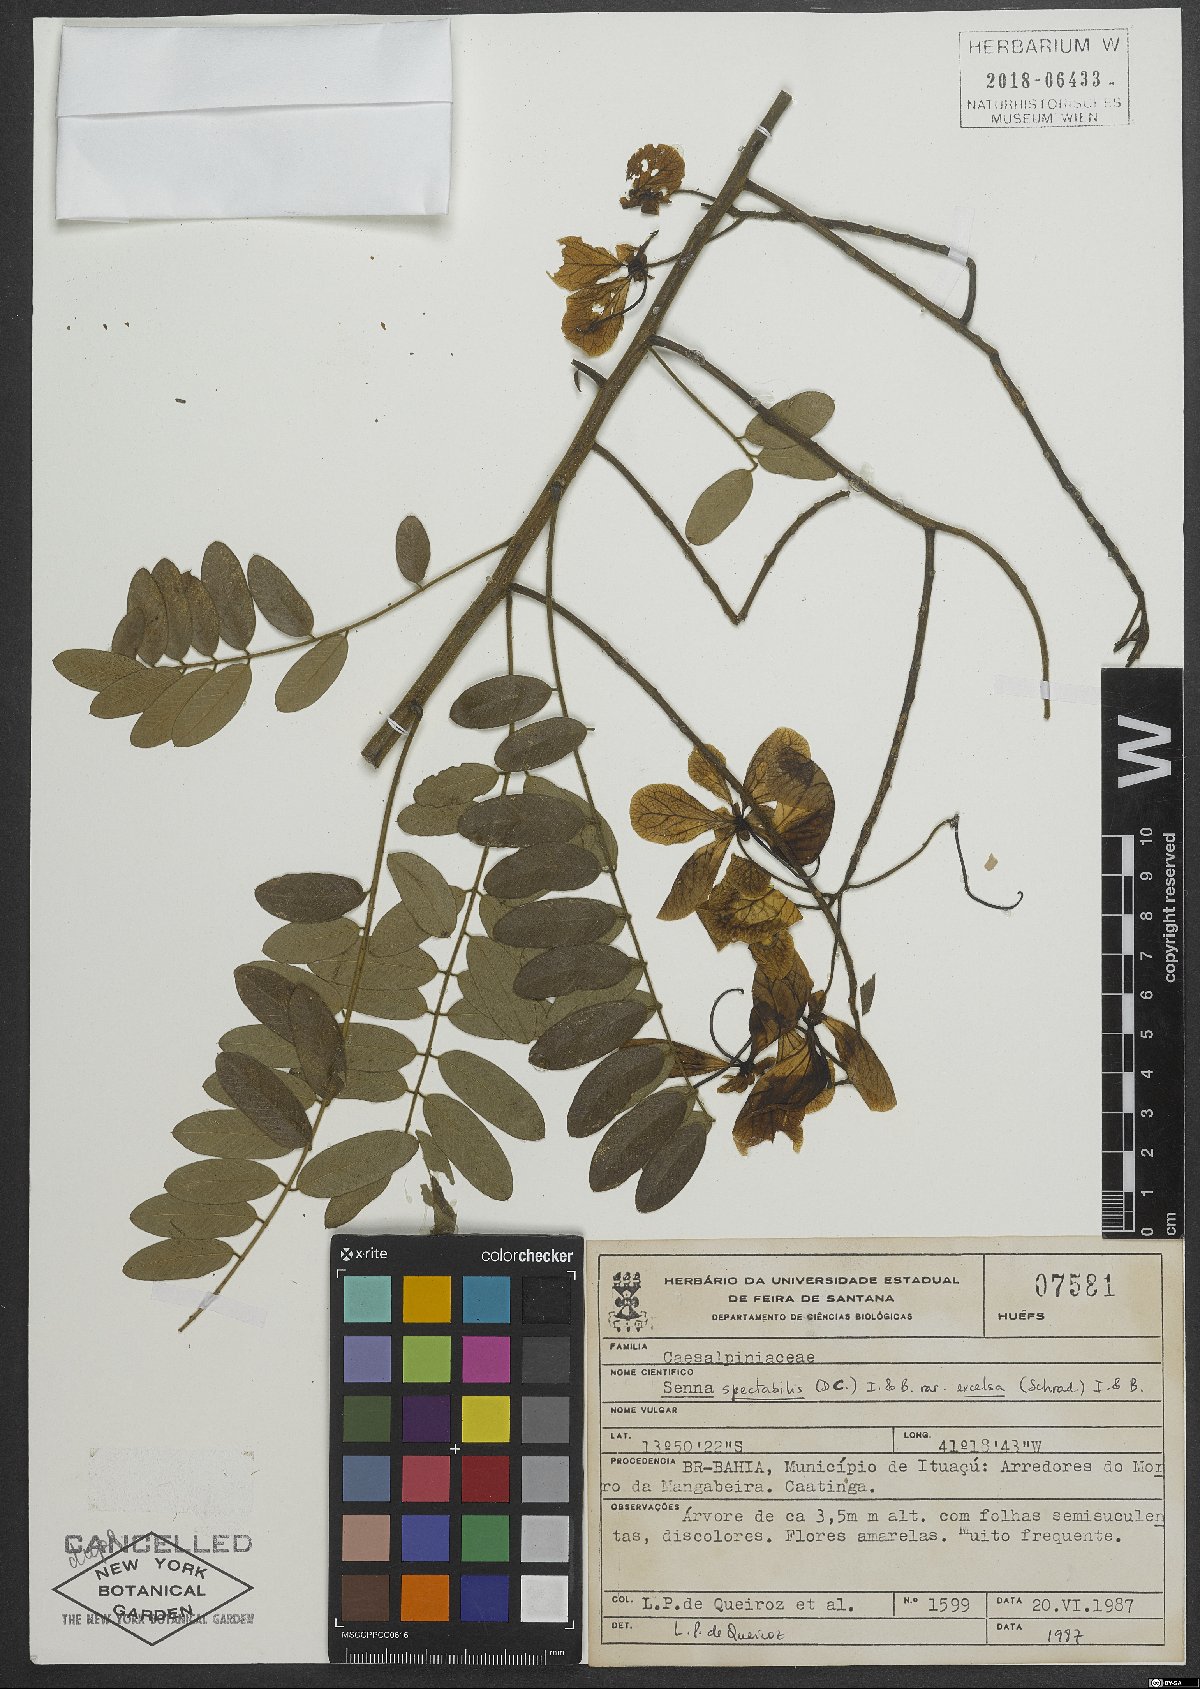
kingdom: Plantae
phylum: Tracheophyta
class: Magnoliopsida
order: Fabales
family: Fabaceae
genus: Senna
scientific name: Senna spectabilis
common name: Casia amarilla
